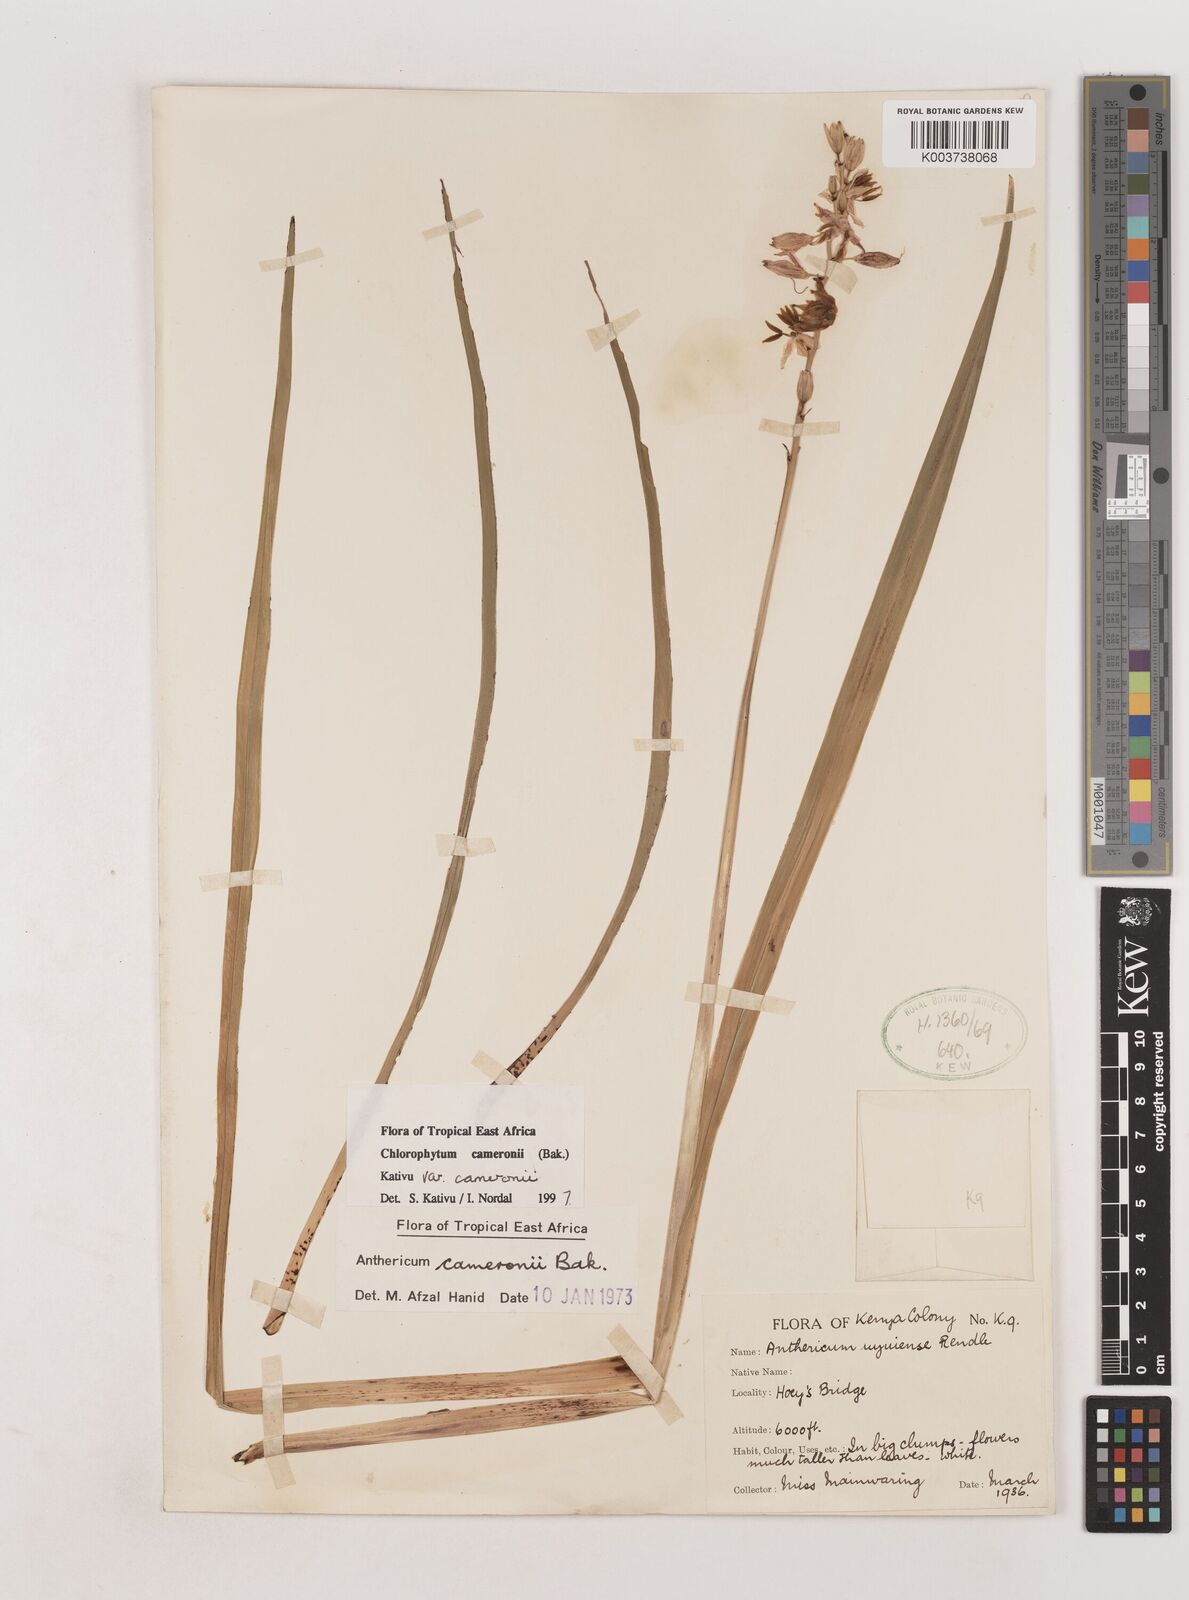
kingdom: Plantae
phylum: Tracheophyta
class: Liliopsida
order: Asparagales
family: Asparagaceae
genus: Chlorophytum
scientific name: Chlorophytum cameronii
